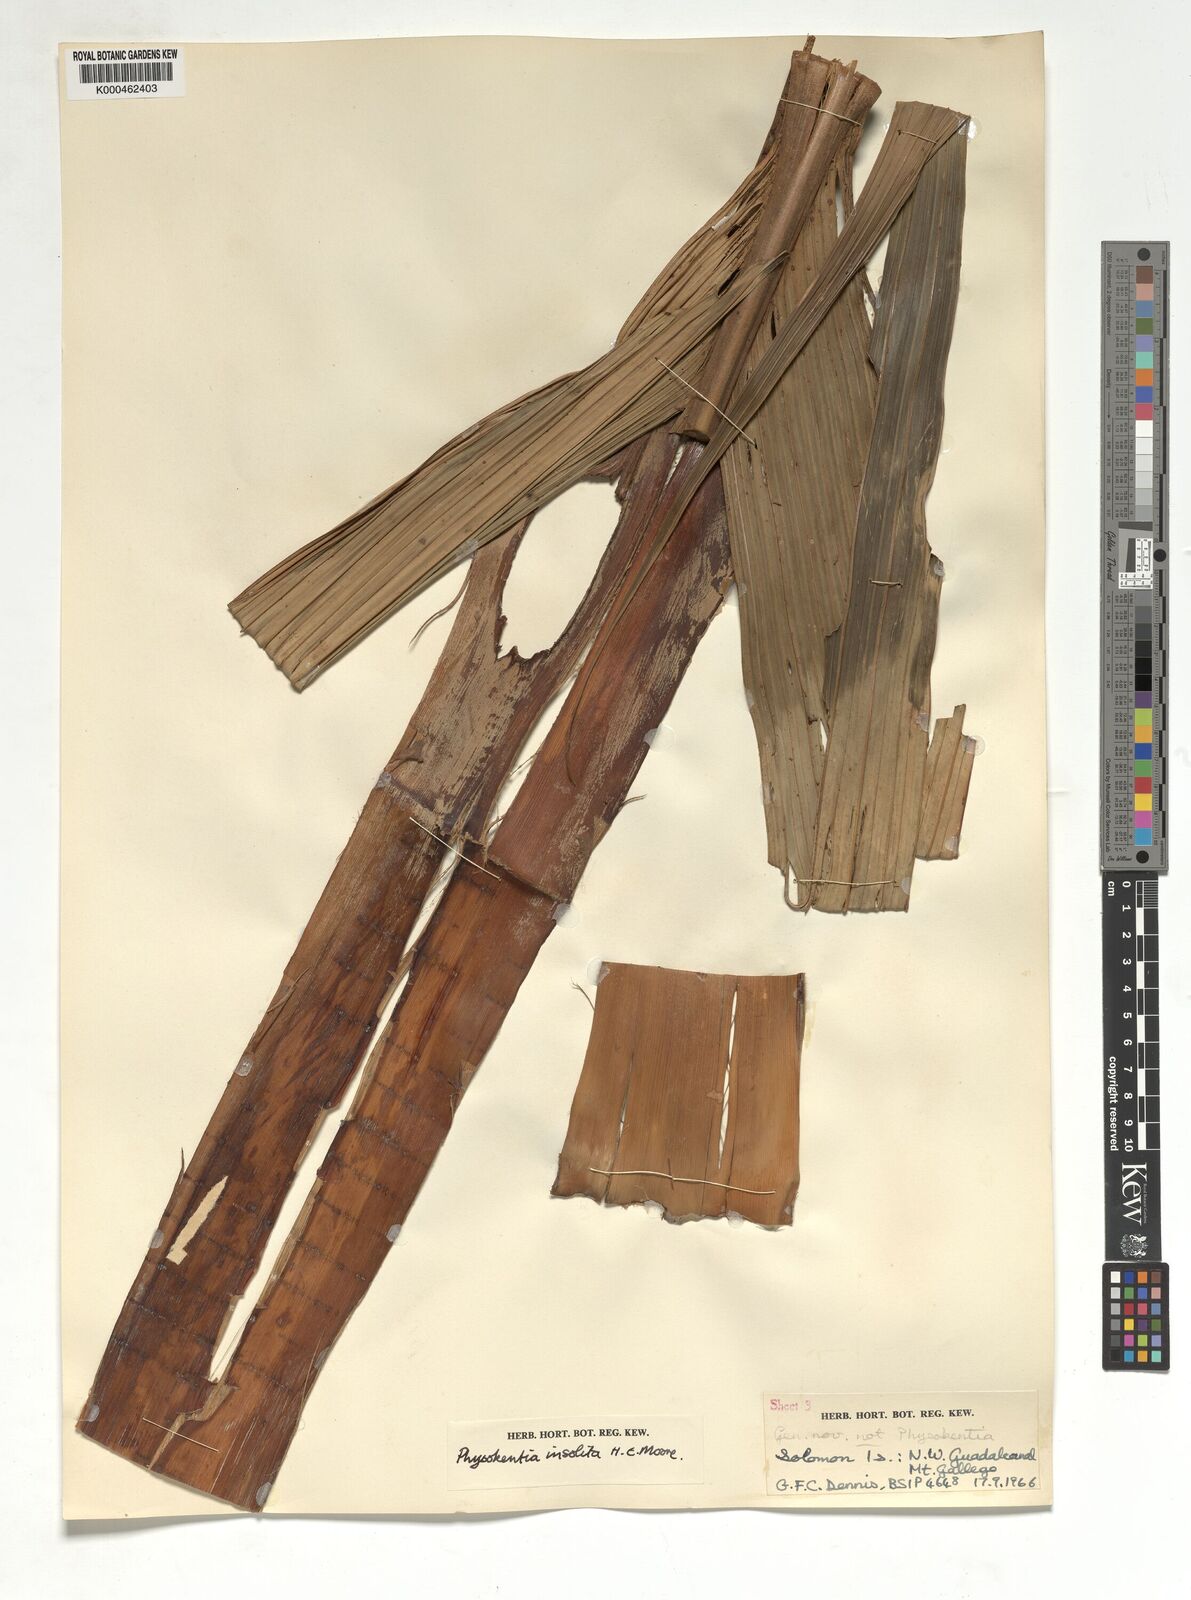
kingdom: Plantae
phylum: Tracheophyta
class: Liliopsida
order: Arecales
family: Arecaceae
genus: Physokentia
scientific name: Physokentia insolita
